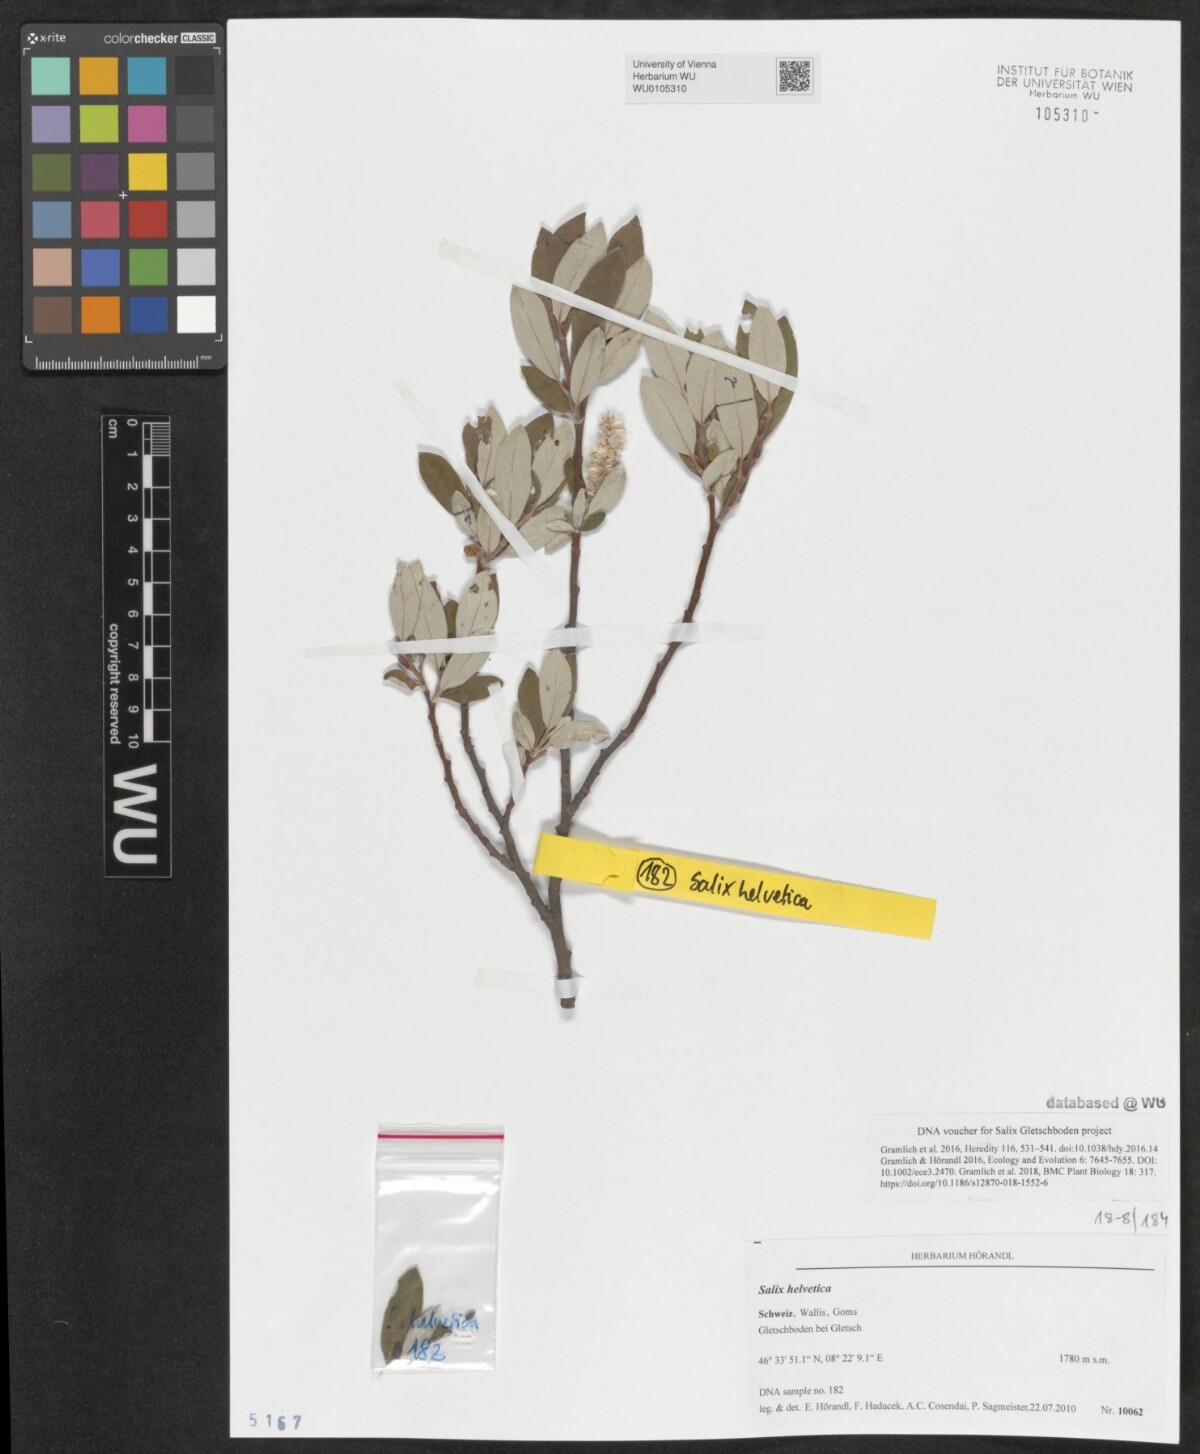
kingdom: Plantae
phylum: Tracheophyta
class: Magnoliopsida
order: Malpighiales
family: Salicaceae
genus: Salix
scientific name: Salix helvetica
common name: Swiss willow
